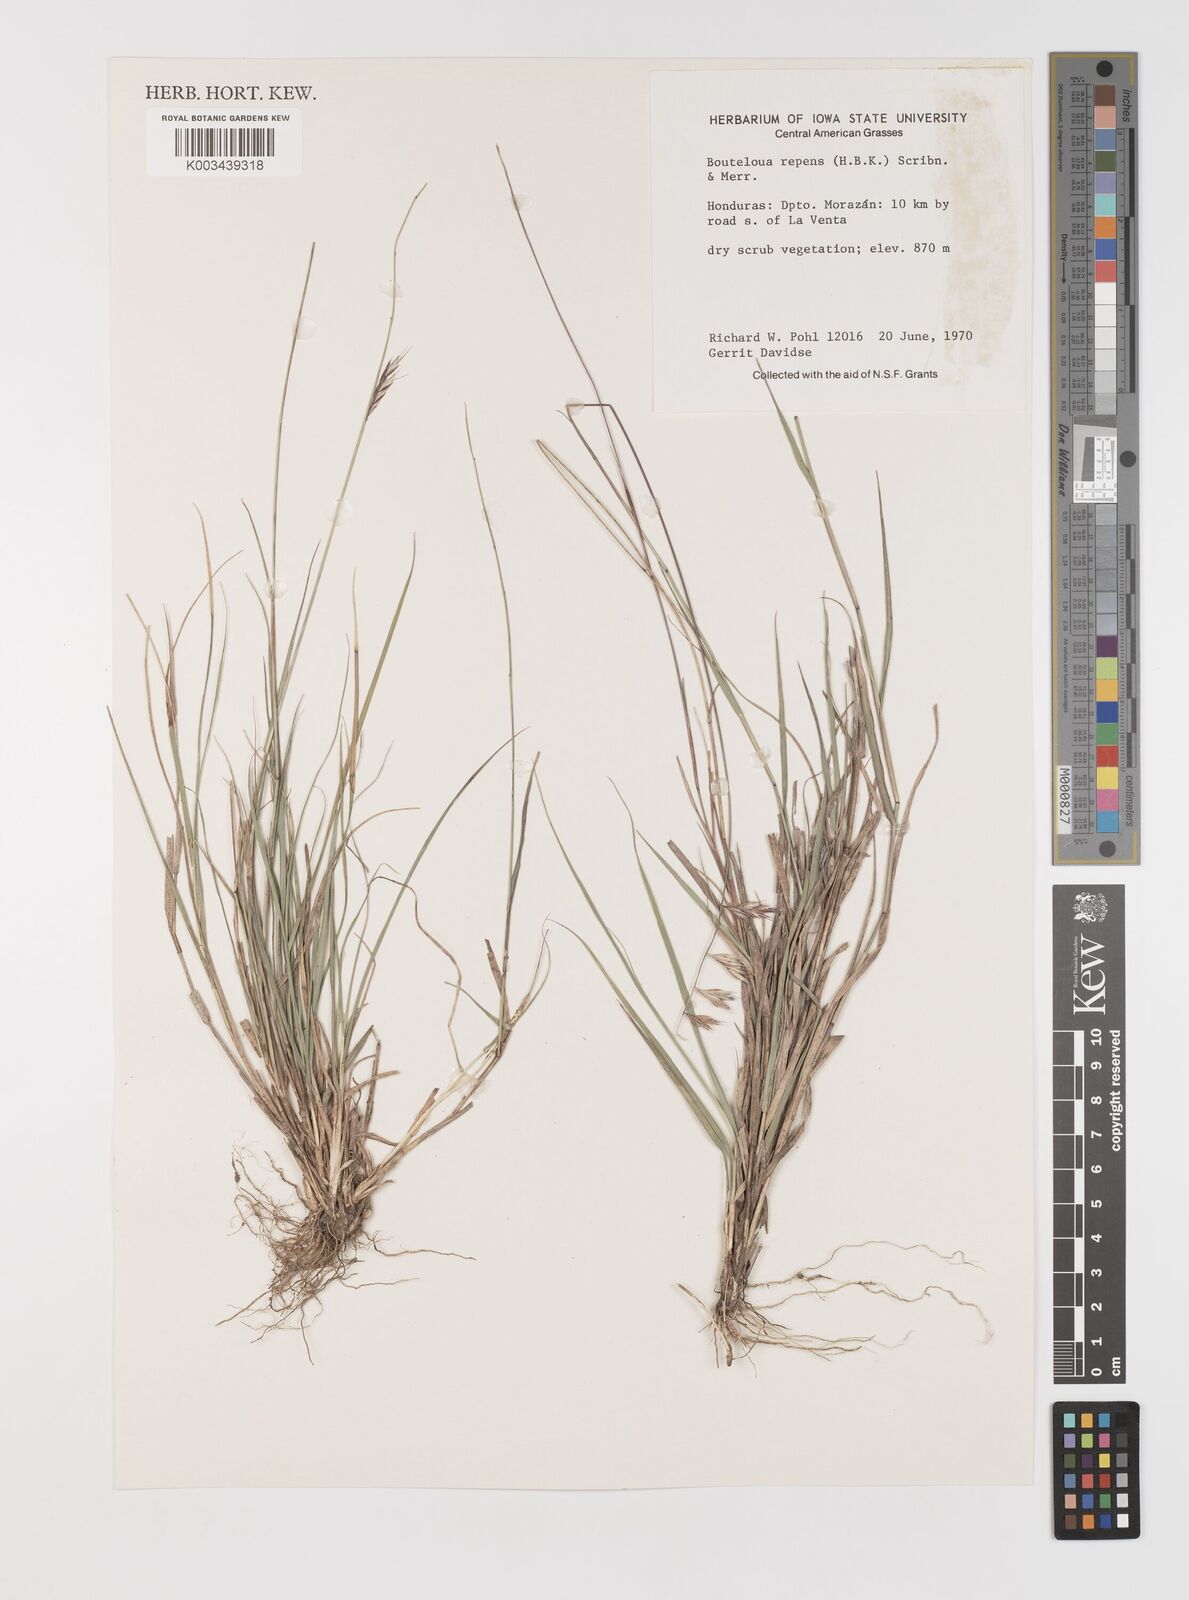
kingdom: Plantae
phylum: Tracheophyta
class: Liliopsida
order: Poales
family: Poaceae
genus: Bouteloua
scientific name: Bouteloua repens
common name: Slender grama
